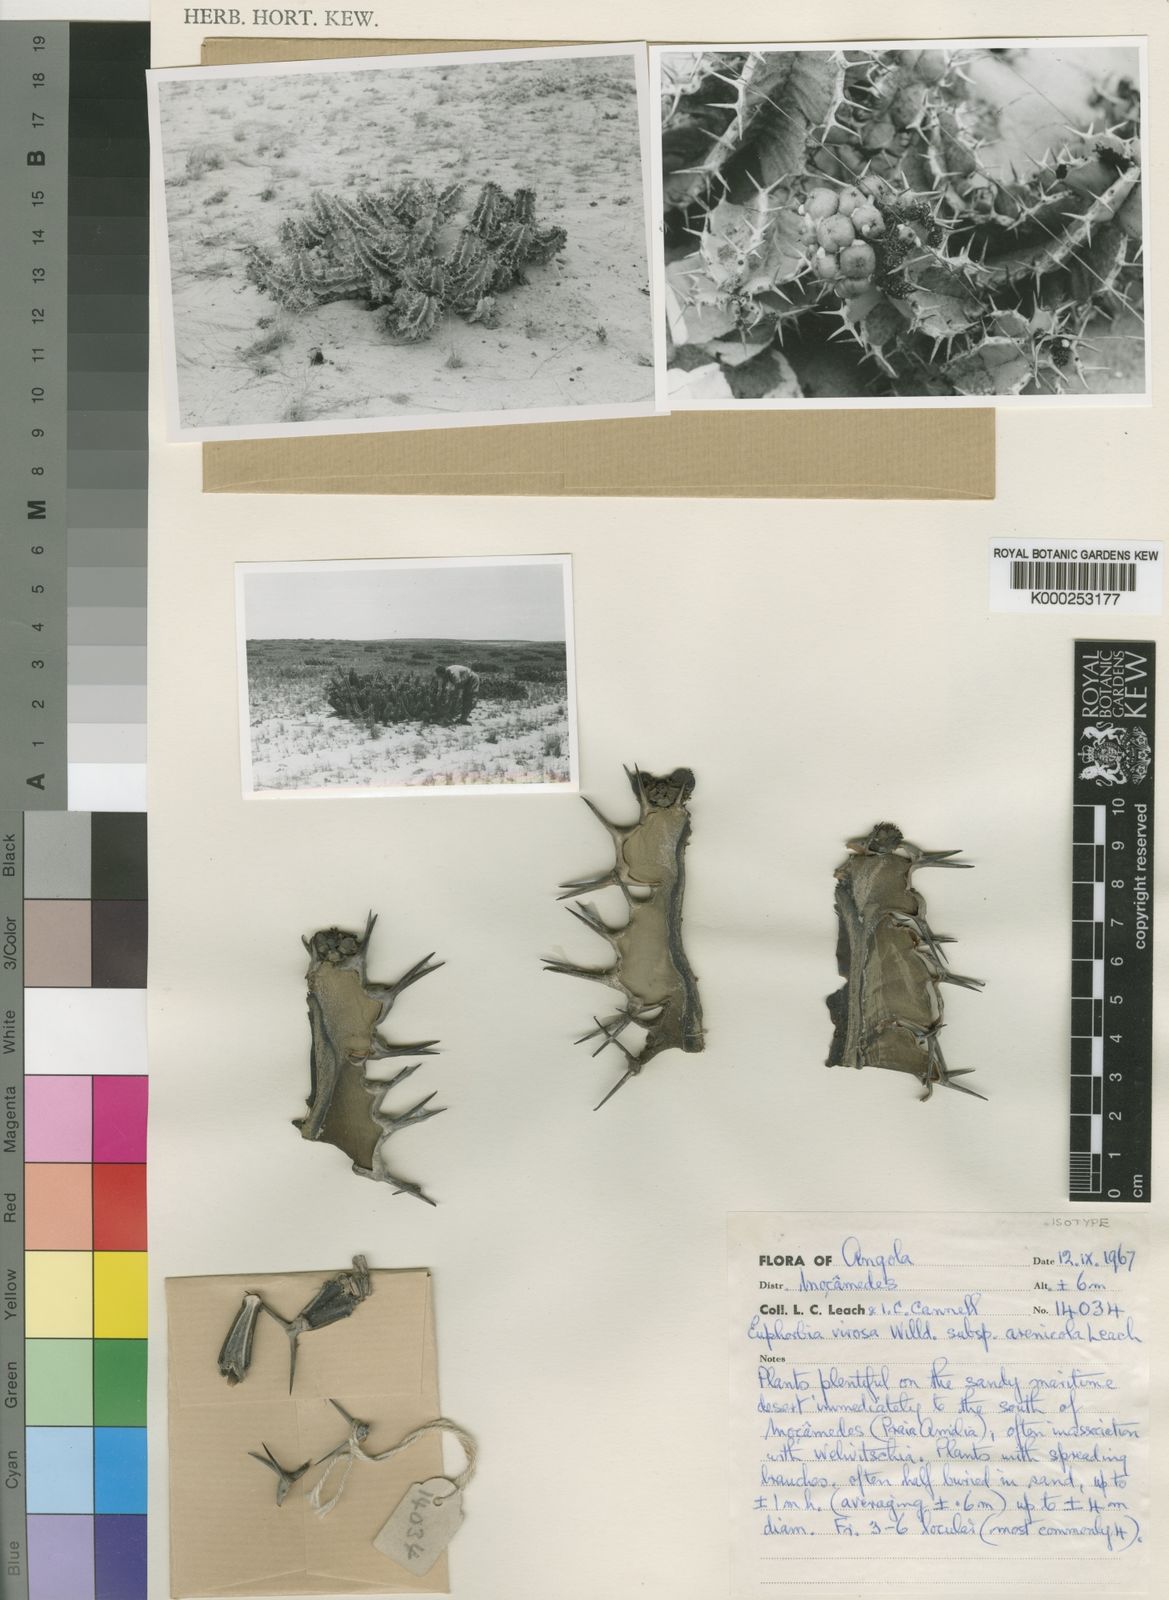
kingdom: Plantae
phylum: Tracheophyta
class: Magnoliopsida
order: Malpighiales
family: Euphorbiaceae
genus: Euphorbia
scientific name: Euphorbia virosa
